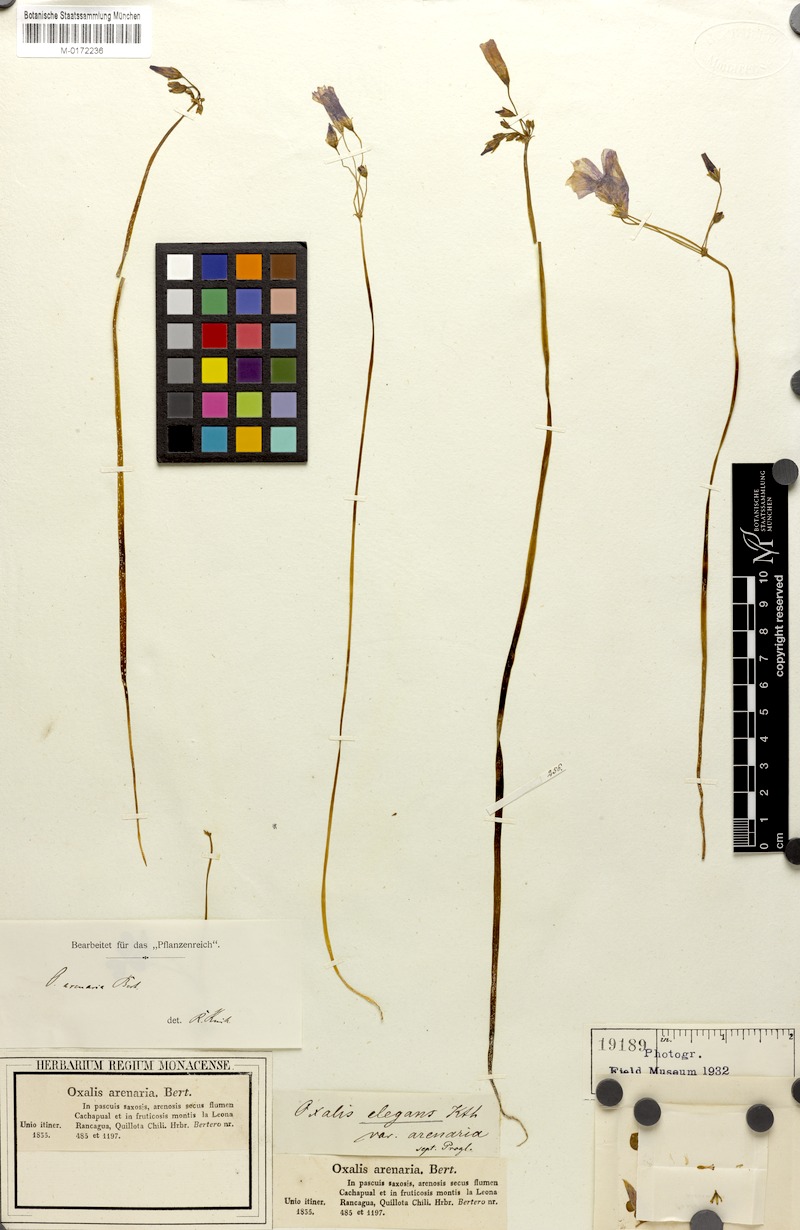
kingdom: Plantae
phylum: Tracheophyta
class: Magnoliopsida
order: Oxalidales
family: Oxalidaceae
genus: Oxalis
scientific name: Oxalis arenaria
